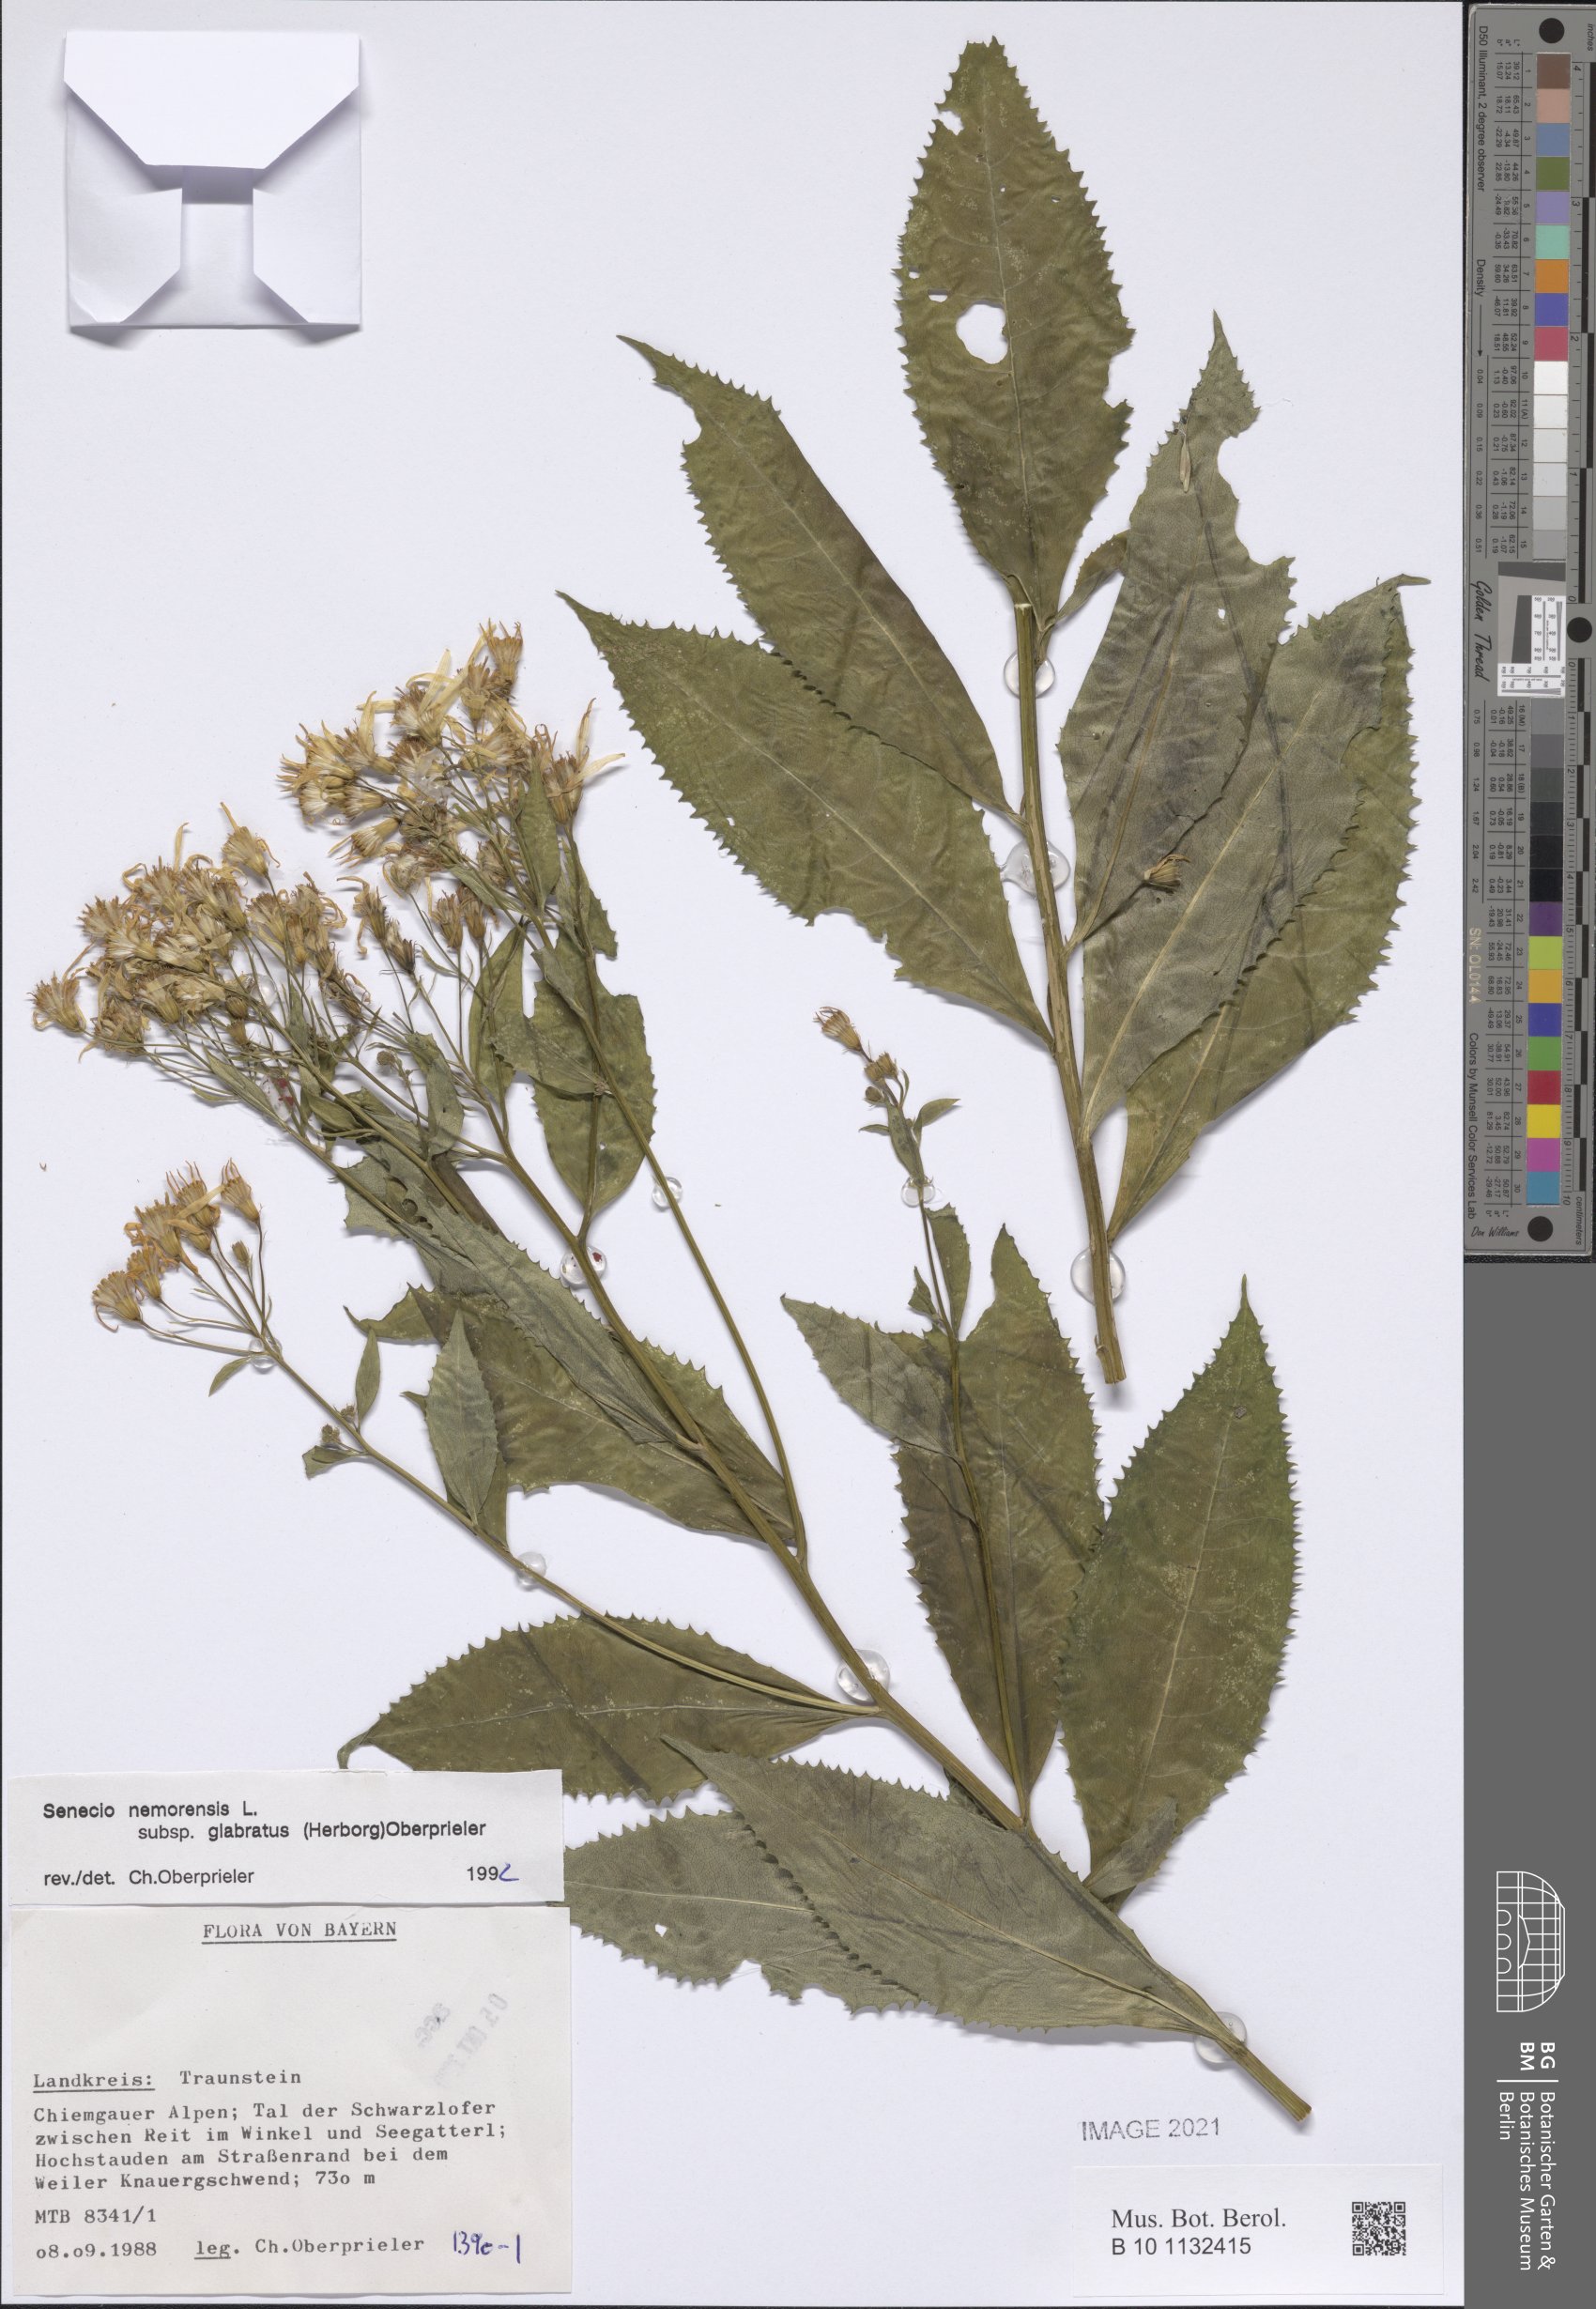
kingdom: Plantae
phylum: Tracheophyta
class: Magnoliopsida
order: Asterales
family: Asteraceae
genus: Senecio
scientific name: Senecio germanicus
